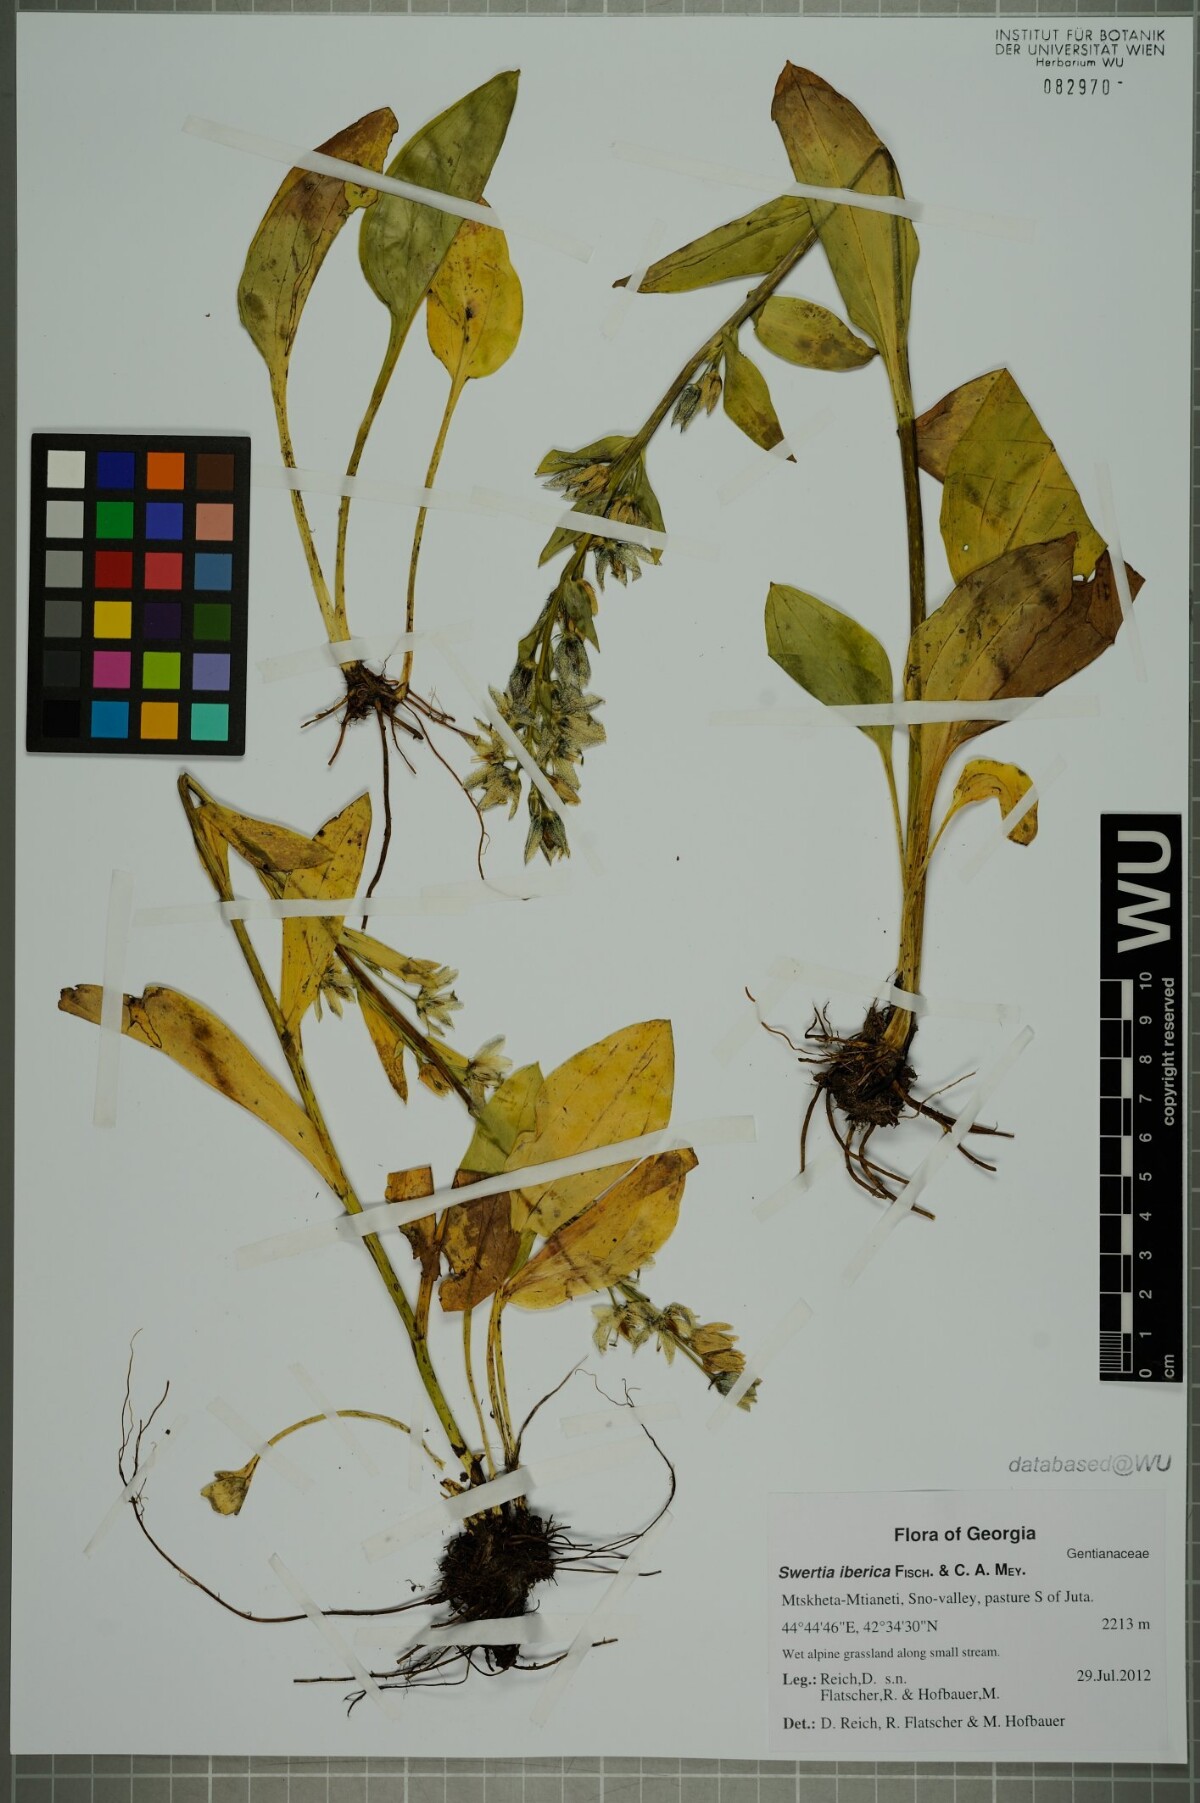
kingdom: Plantae
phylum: Tracheophyta
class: Magnoliopsida
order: Gentianales
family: Gentianaceae
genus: Swertia
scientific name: Swertia iberica
